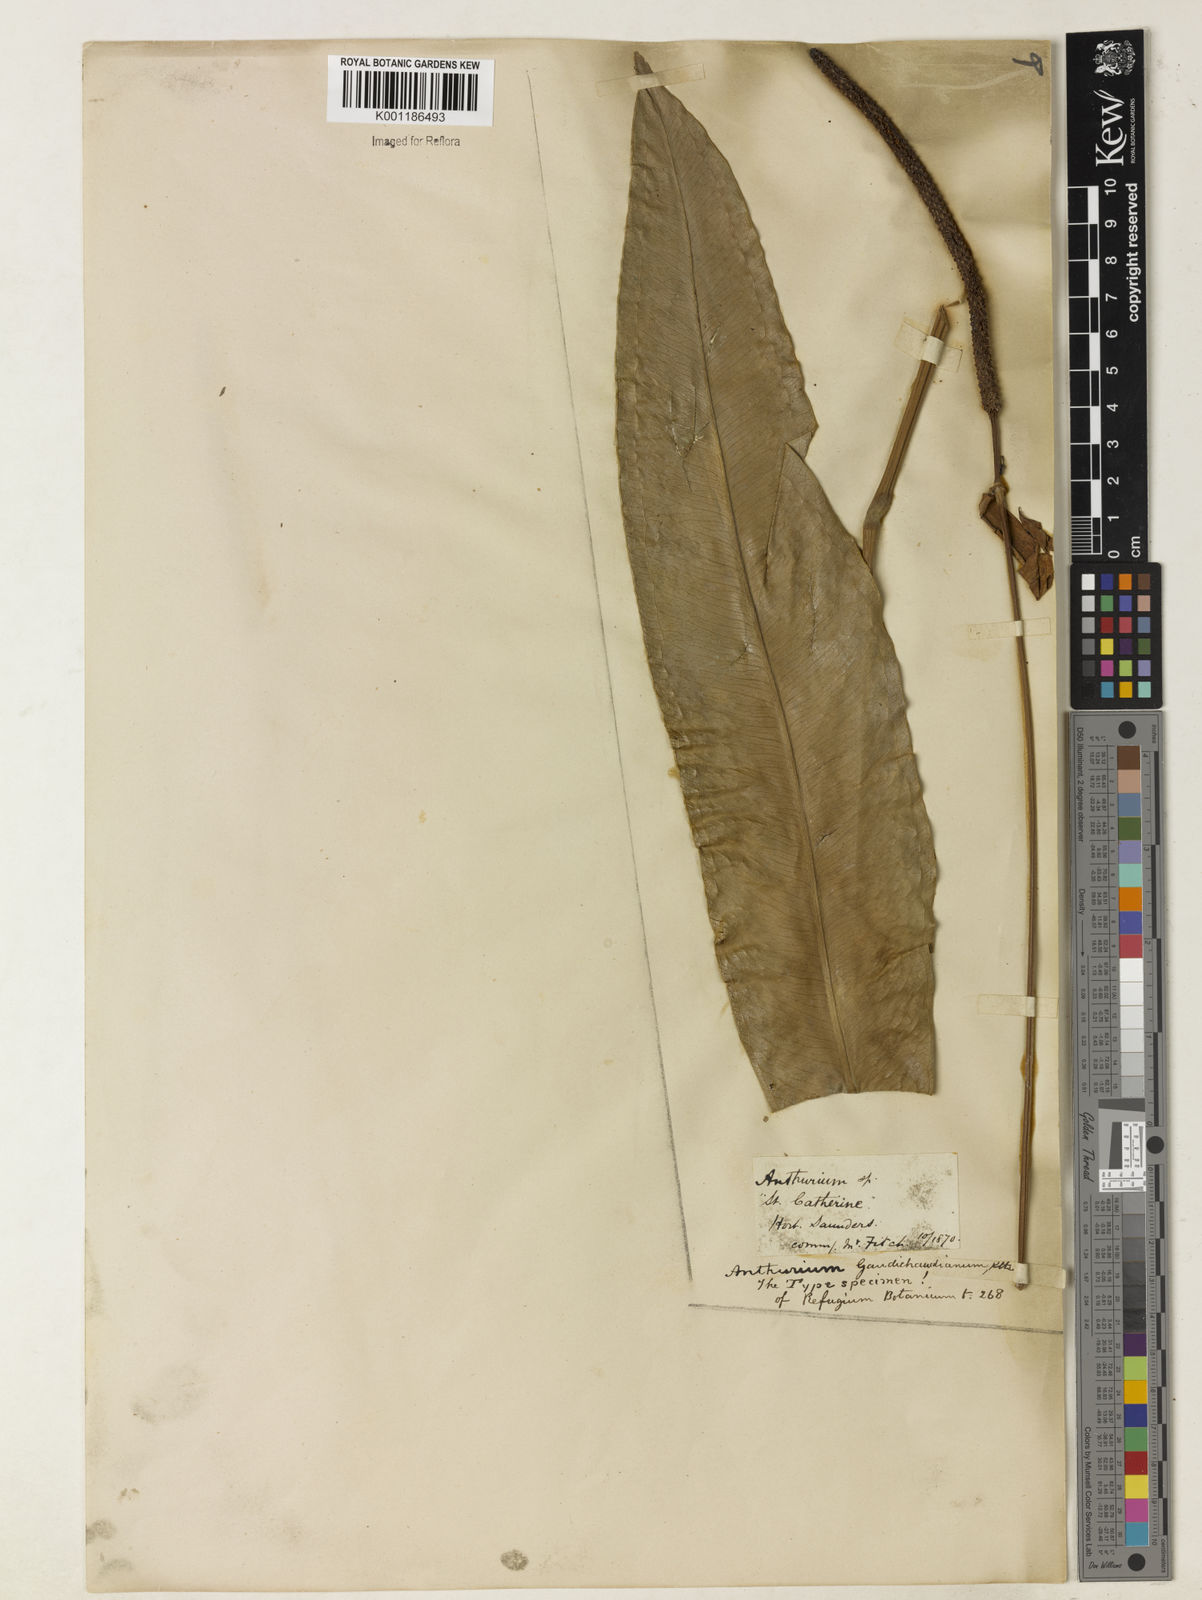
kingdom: Plantae
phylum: Tracheophyta
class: Liliopsida
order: Alismatales
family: Araceae
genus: Anthurium
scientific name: Anthurium gaudichaudianum
